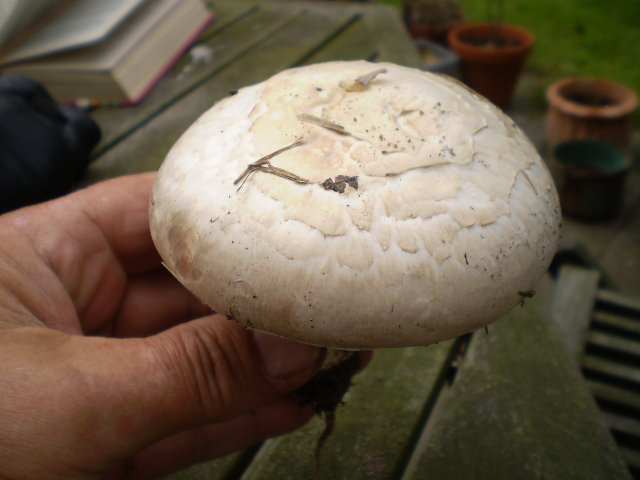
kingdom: Fungi
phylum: Basidiomycota
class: Agaricomycetes
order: Agaricales
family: Agaricaceae
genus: Agaricus
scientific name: Agaricus litoralis
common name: kyst-champignon
